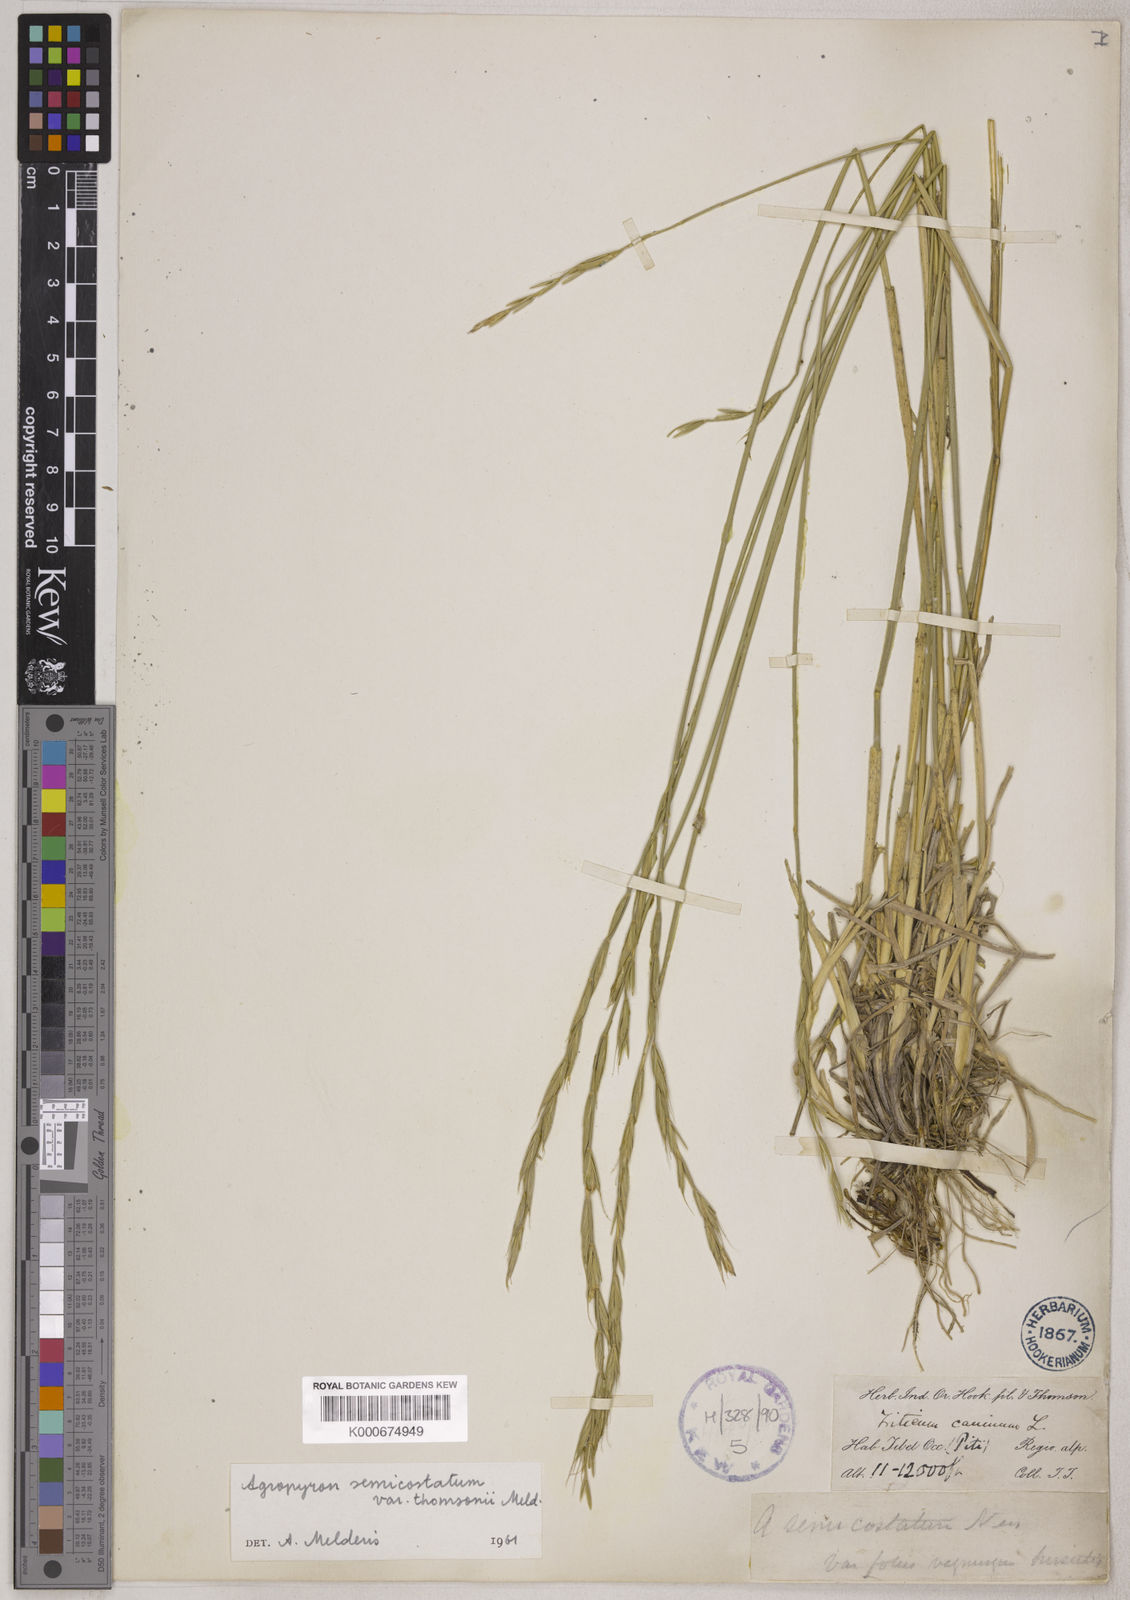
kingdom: Plantae
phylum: Tracheophyta
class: Liliopsida
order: Poales
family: Poaceae
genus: Elymus
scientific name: Elymus semicostatus
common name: Drooping wildrye
